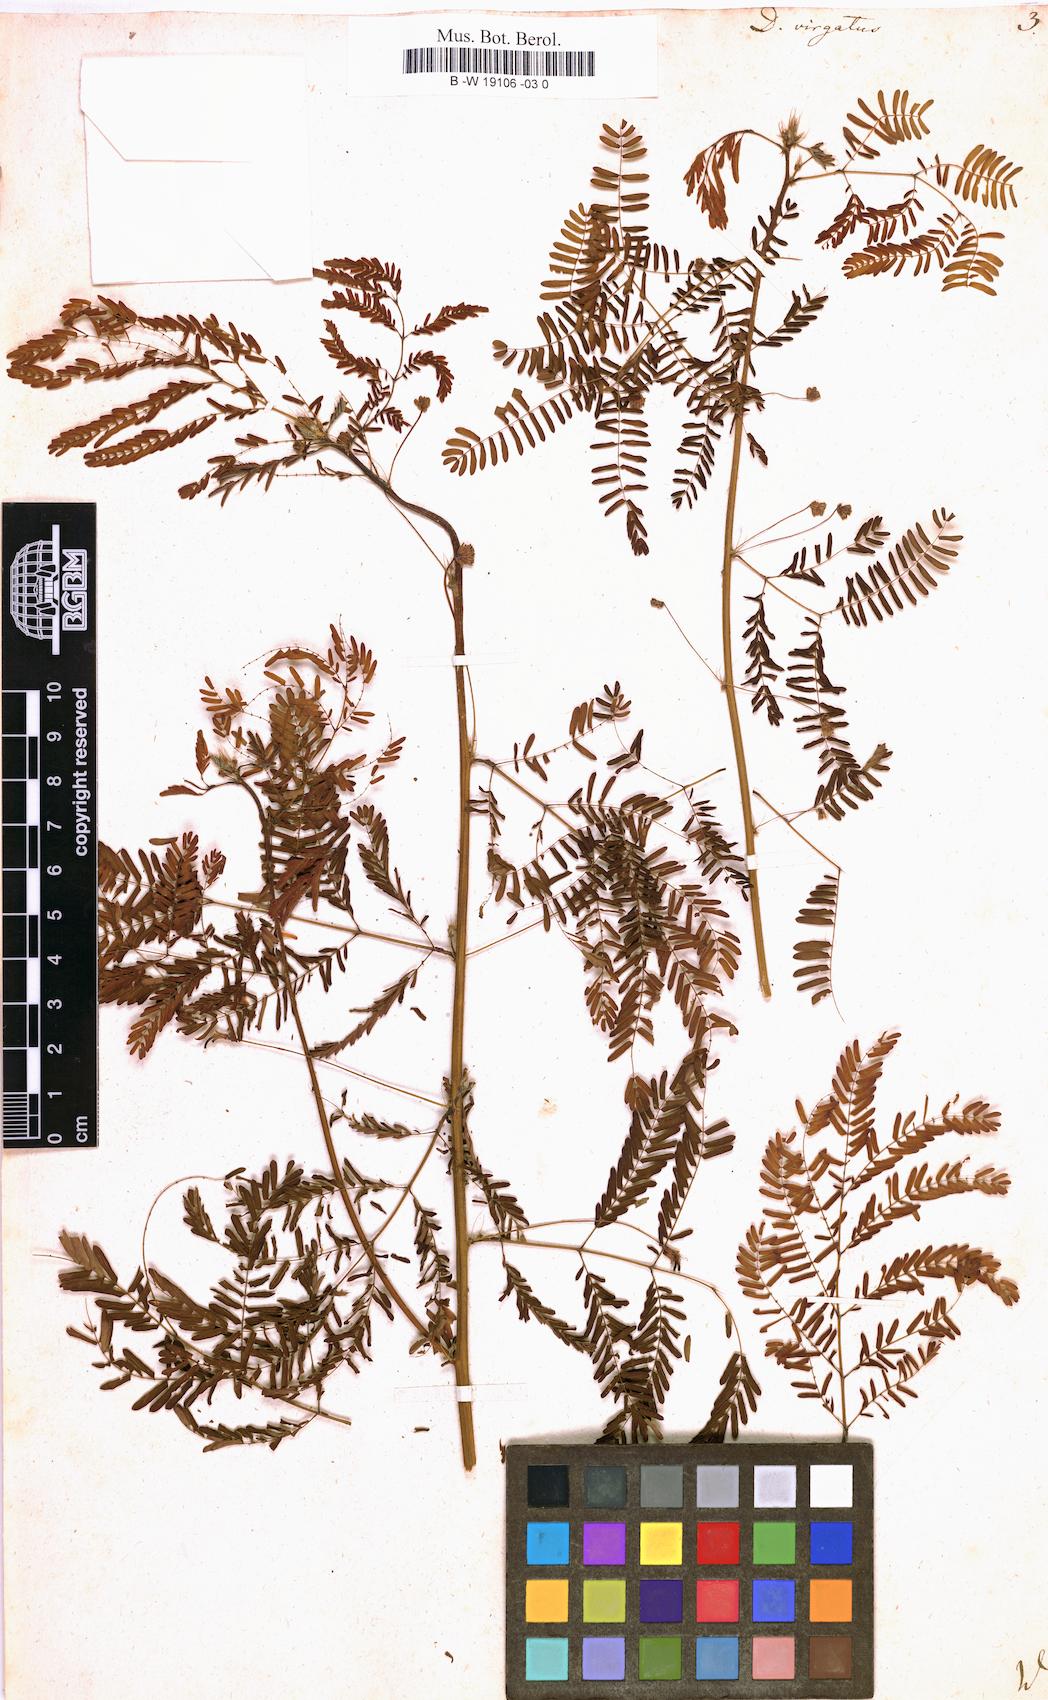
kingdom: Plantae
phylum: Tracheophyta
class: Magnoliopsida
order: Fabales
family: Fabaceae
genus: Desmanthus
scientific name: Desmanthus virgatus
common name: Wild tantan
